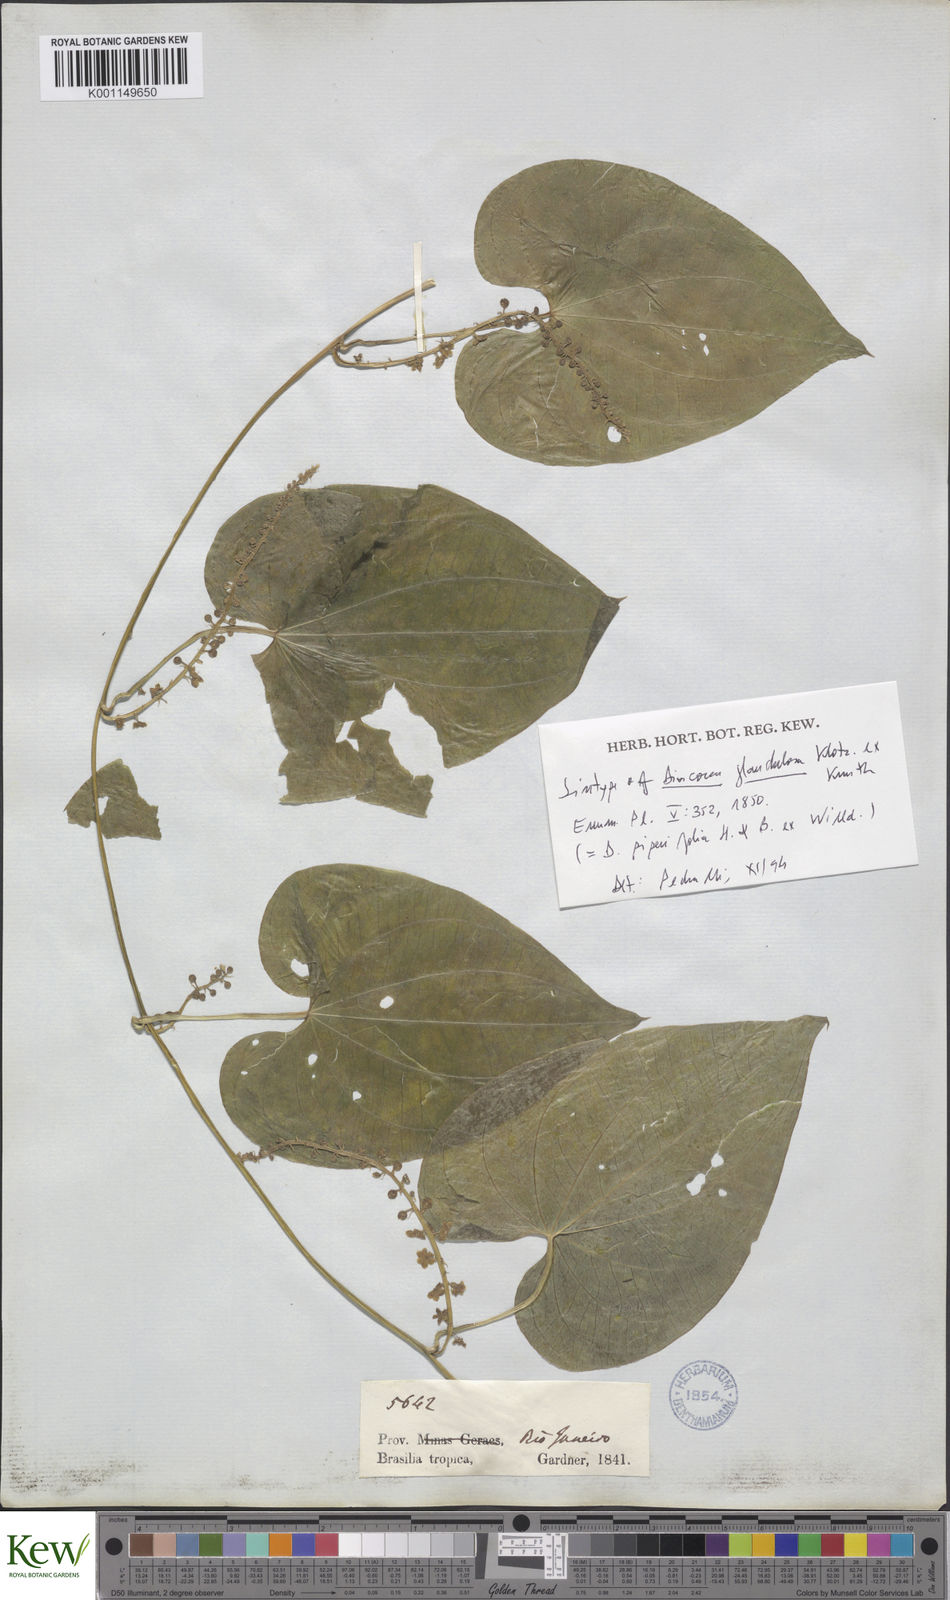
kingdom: Plantae
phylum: Tracheophyta
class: Liliopsida
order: Dioscoreales
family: Dioscoreaceae
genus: Dioscorea
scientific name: Dioscorea glandulosa
